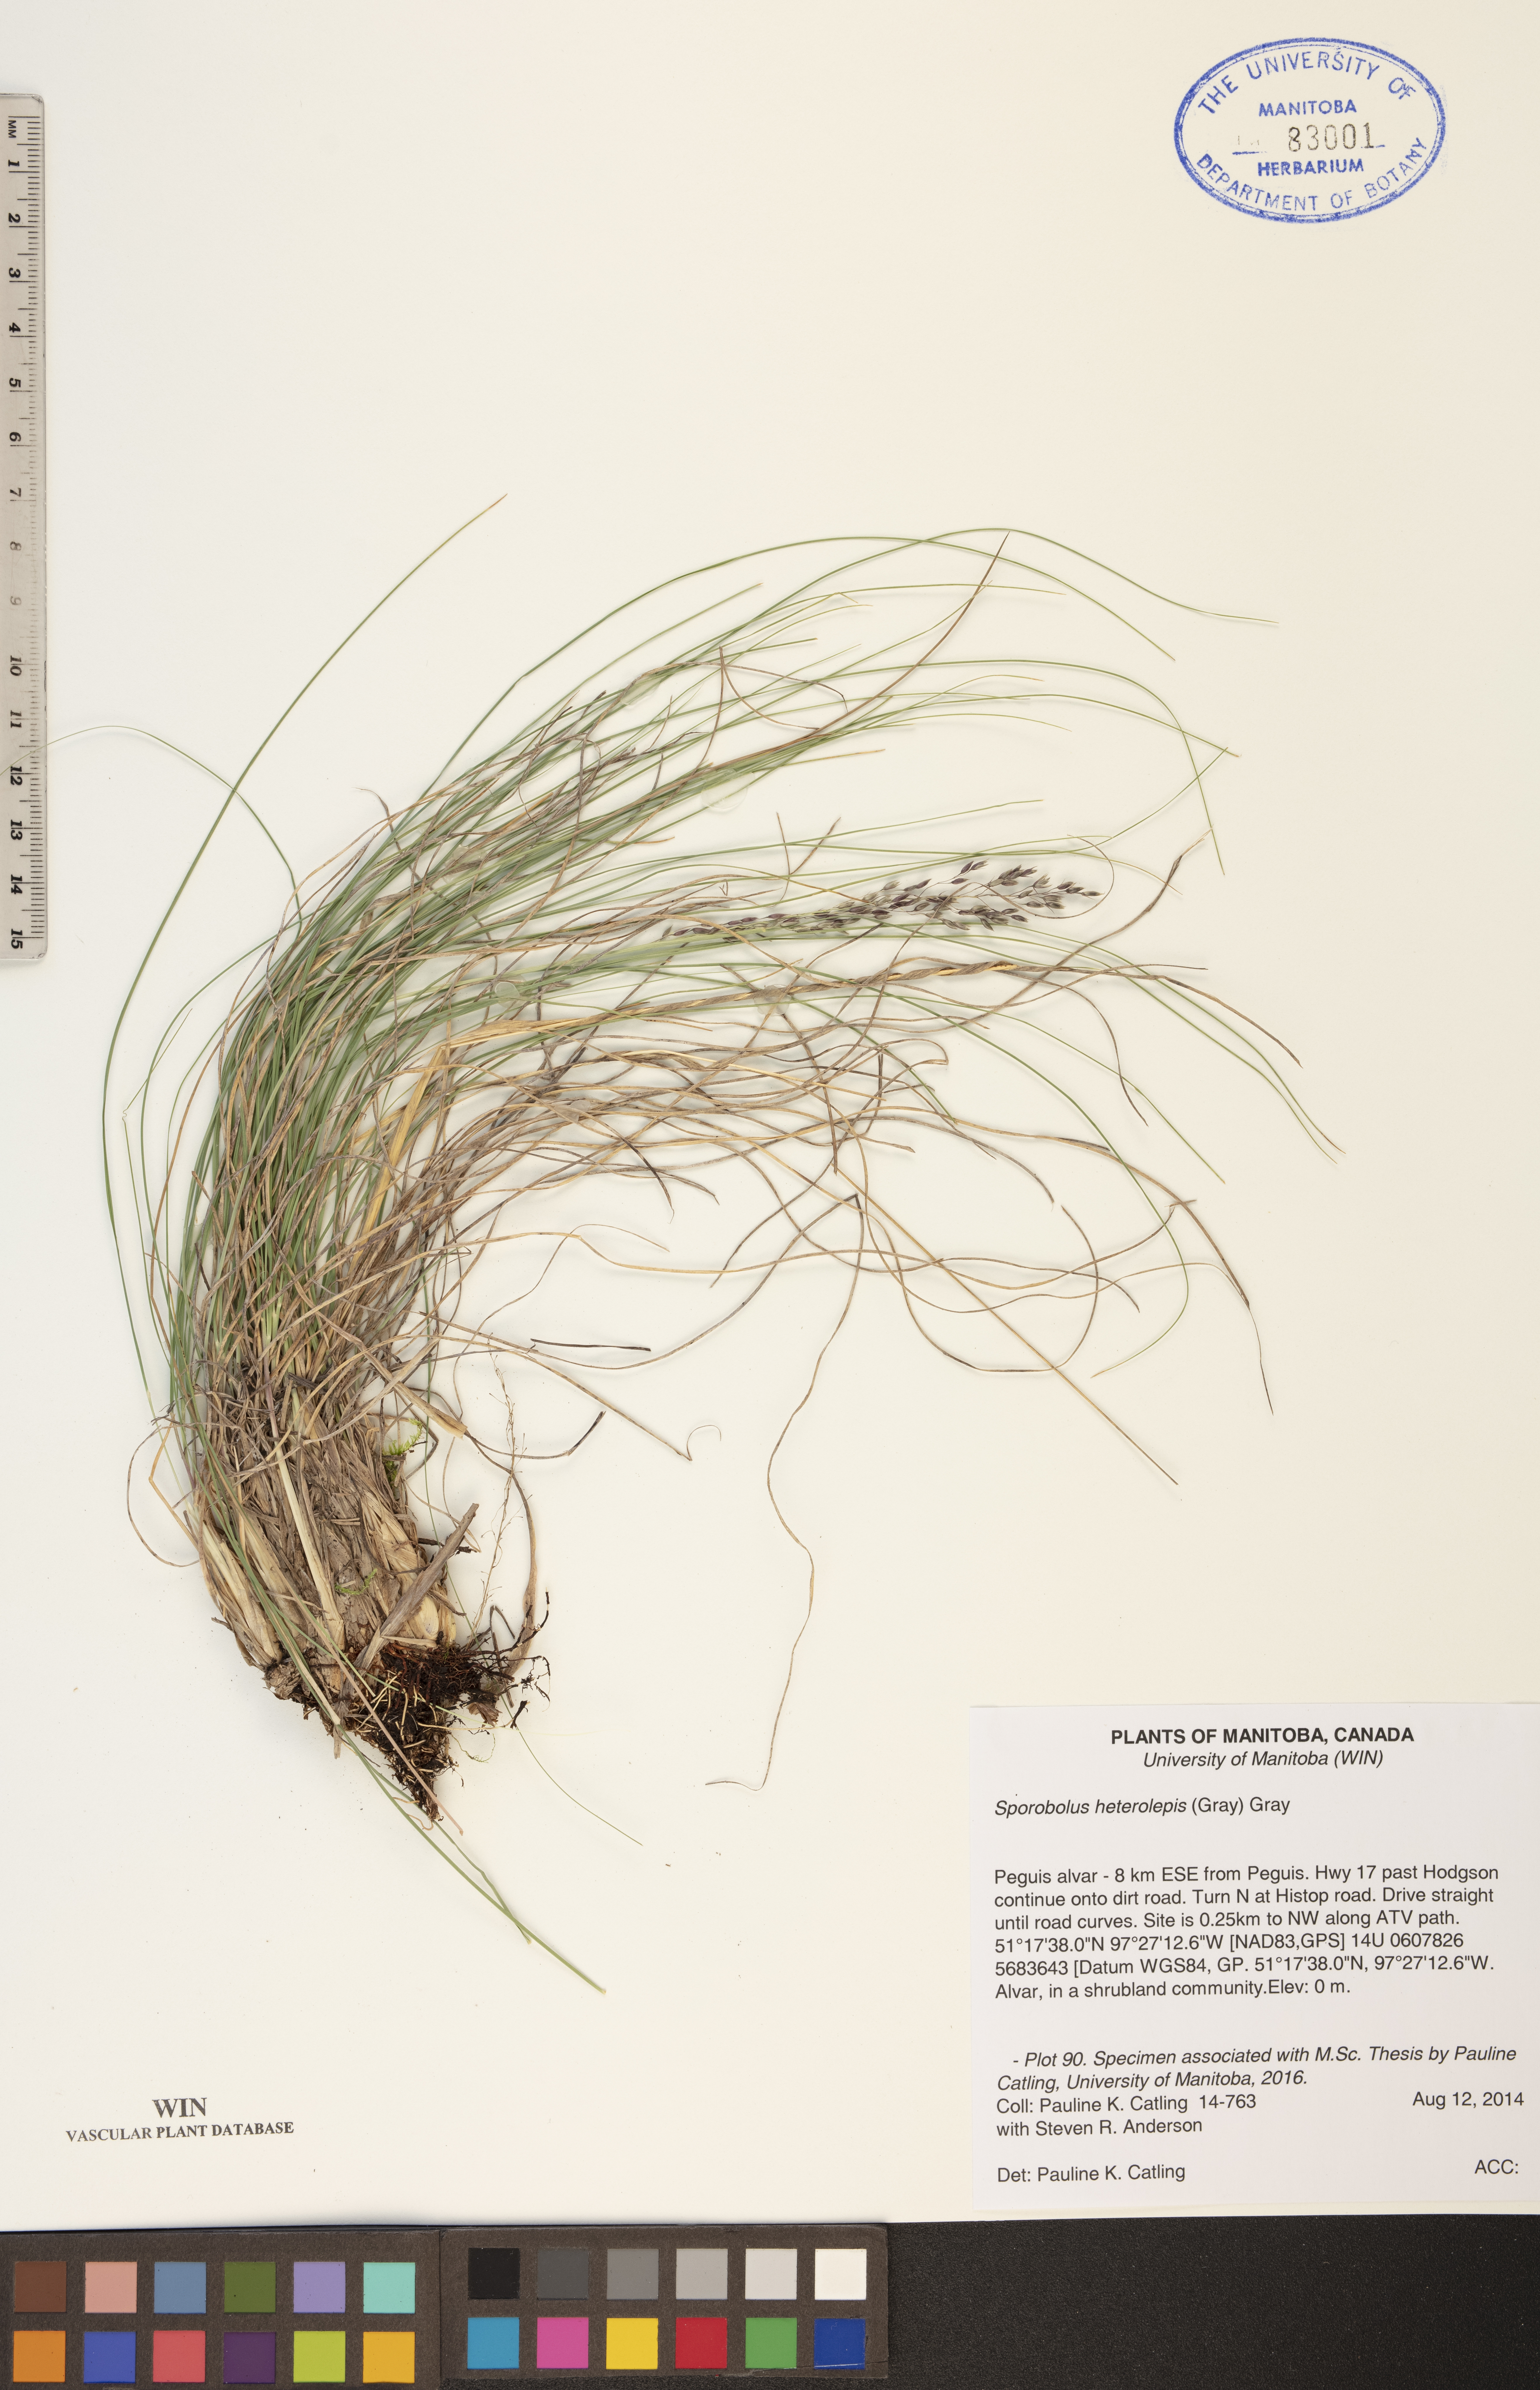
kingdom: Plantae
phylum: Tracheophyta
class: Liliopsida
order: Poales
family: Poaceae
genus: Sporobolus
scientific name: Sporobolus heterolepis
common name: Prairie dropseed
